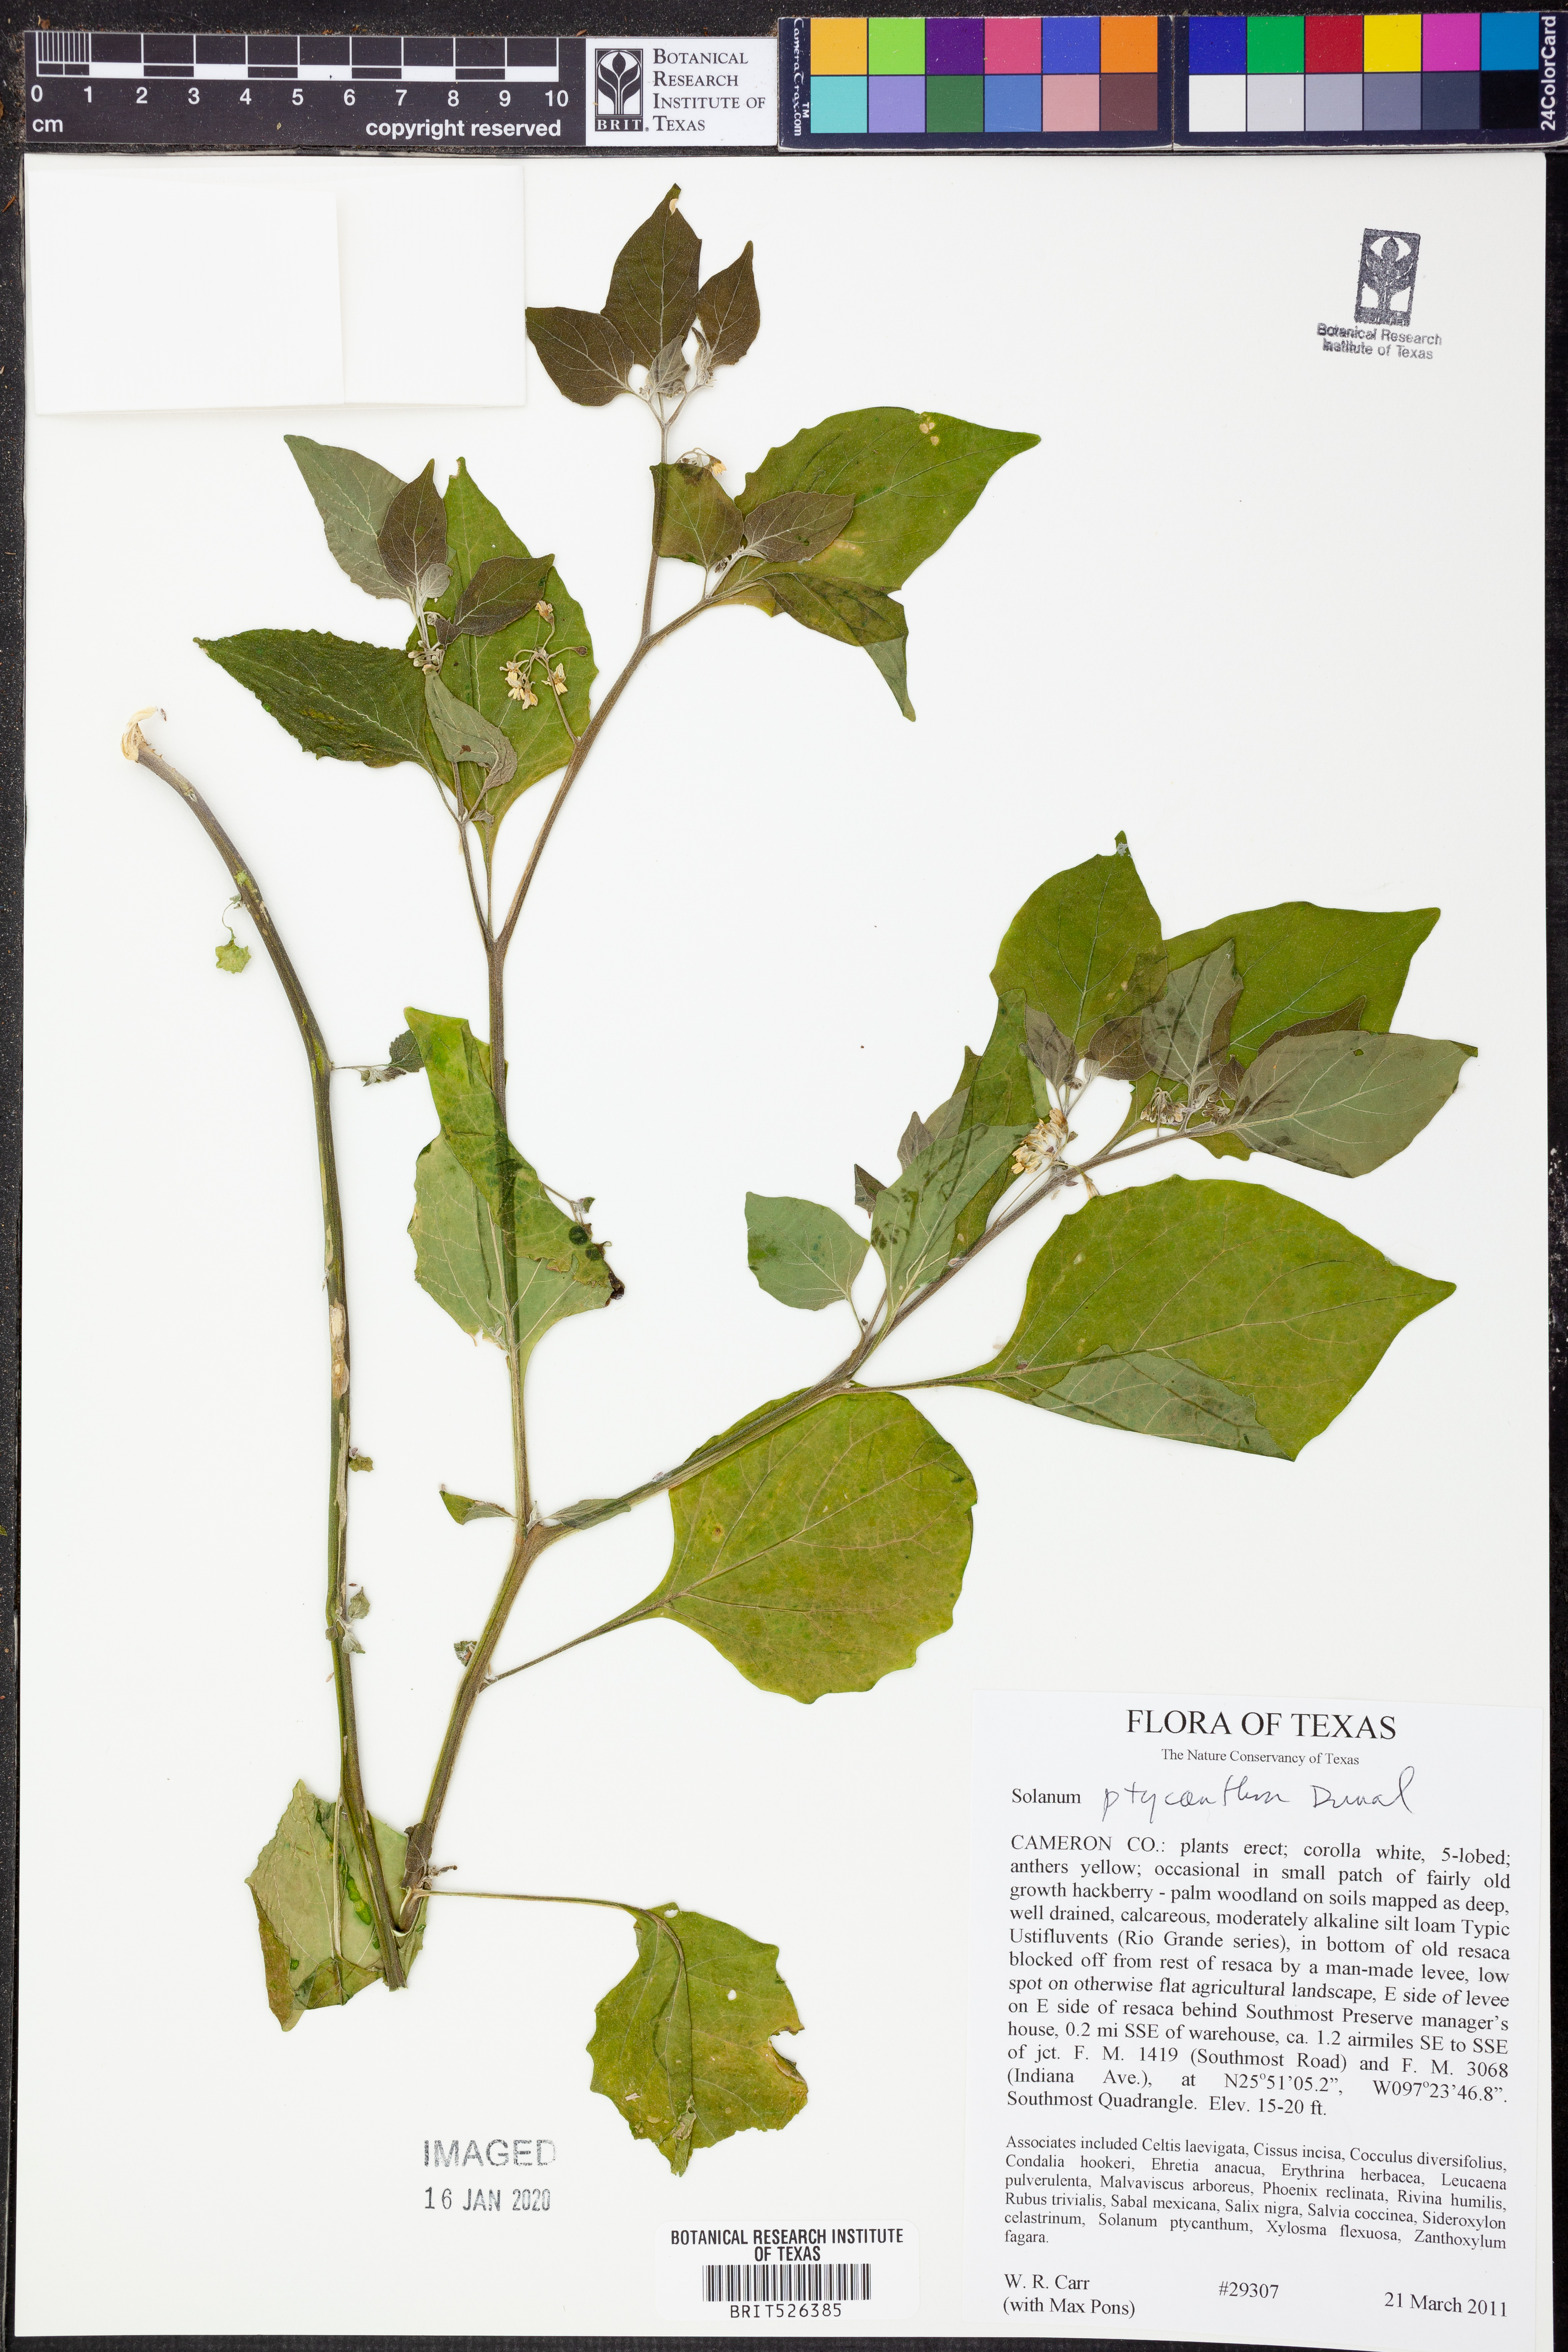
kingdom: Plantae
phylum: Tracheophyta
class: Magnoliopsida
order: Solanales
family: Solanaceae
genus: Solanum
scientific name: Solanum americanum
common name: American black nightshade
